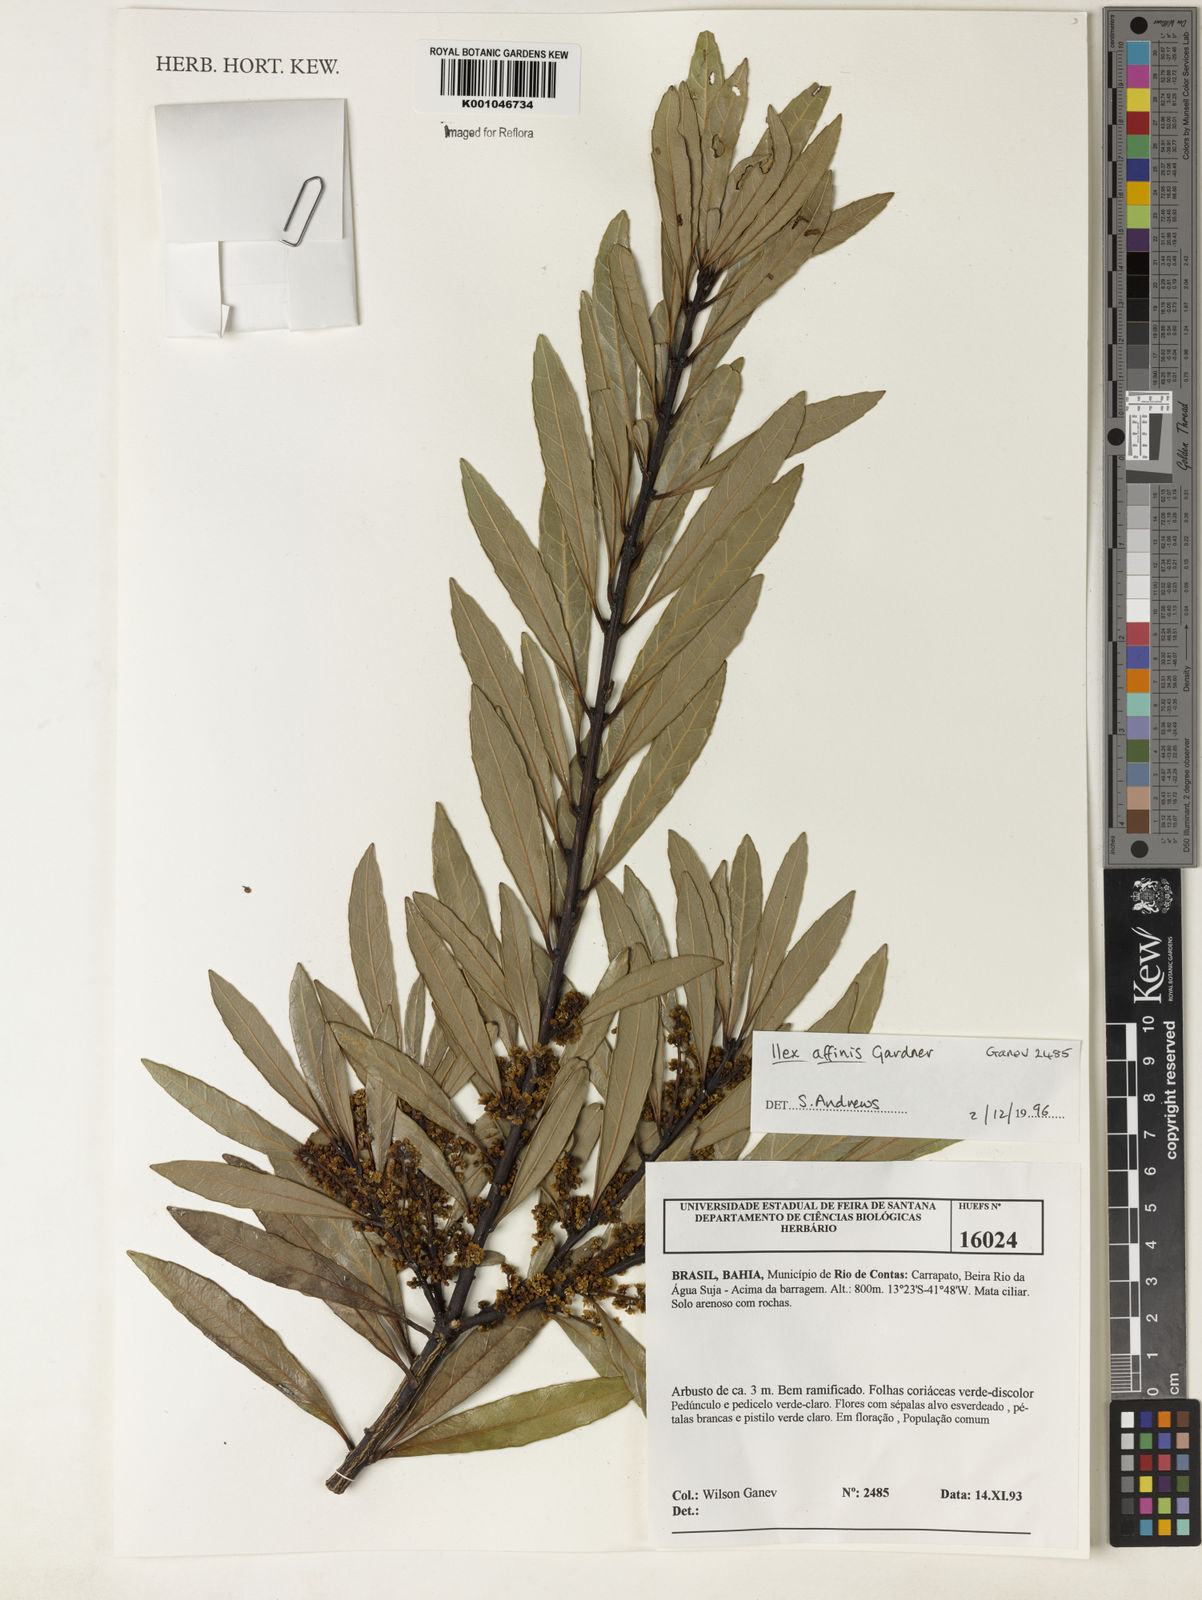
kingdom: Plantae
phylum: Tracheophyta
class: Magnoliopsida
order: Aquifoliales
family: Aquifoliaceae
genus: Ilex
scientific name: Ilex affinis
